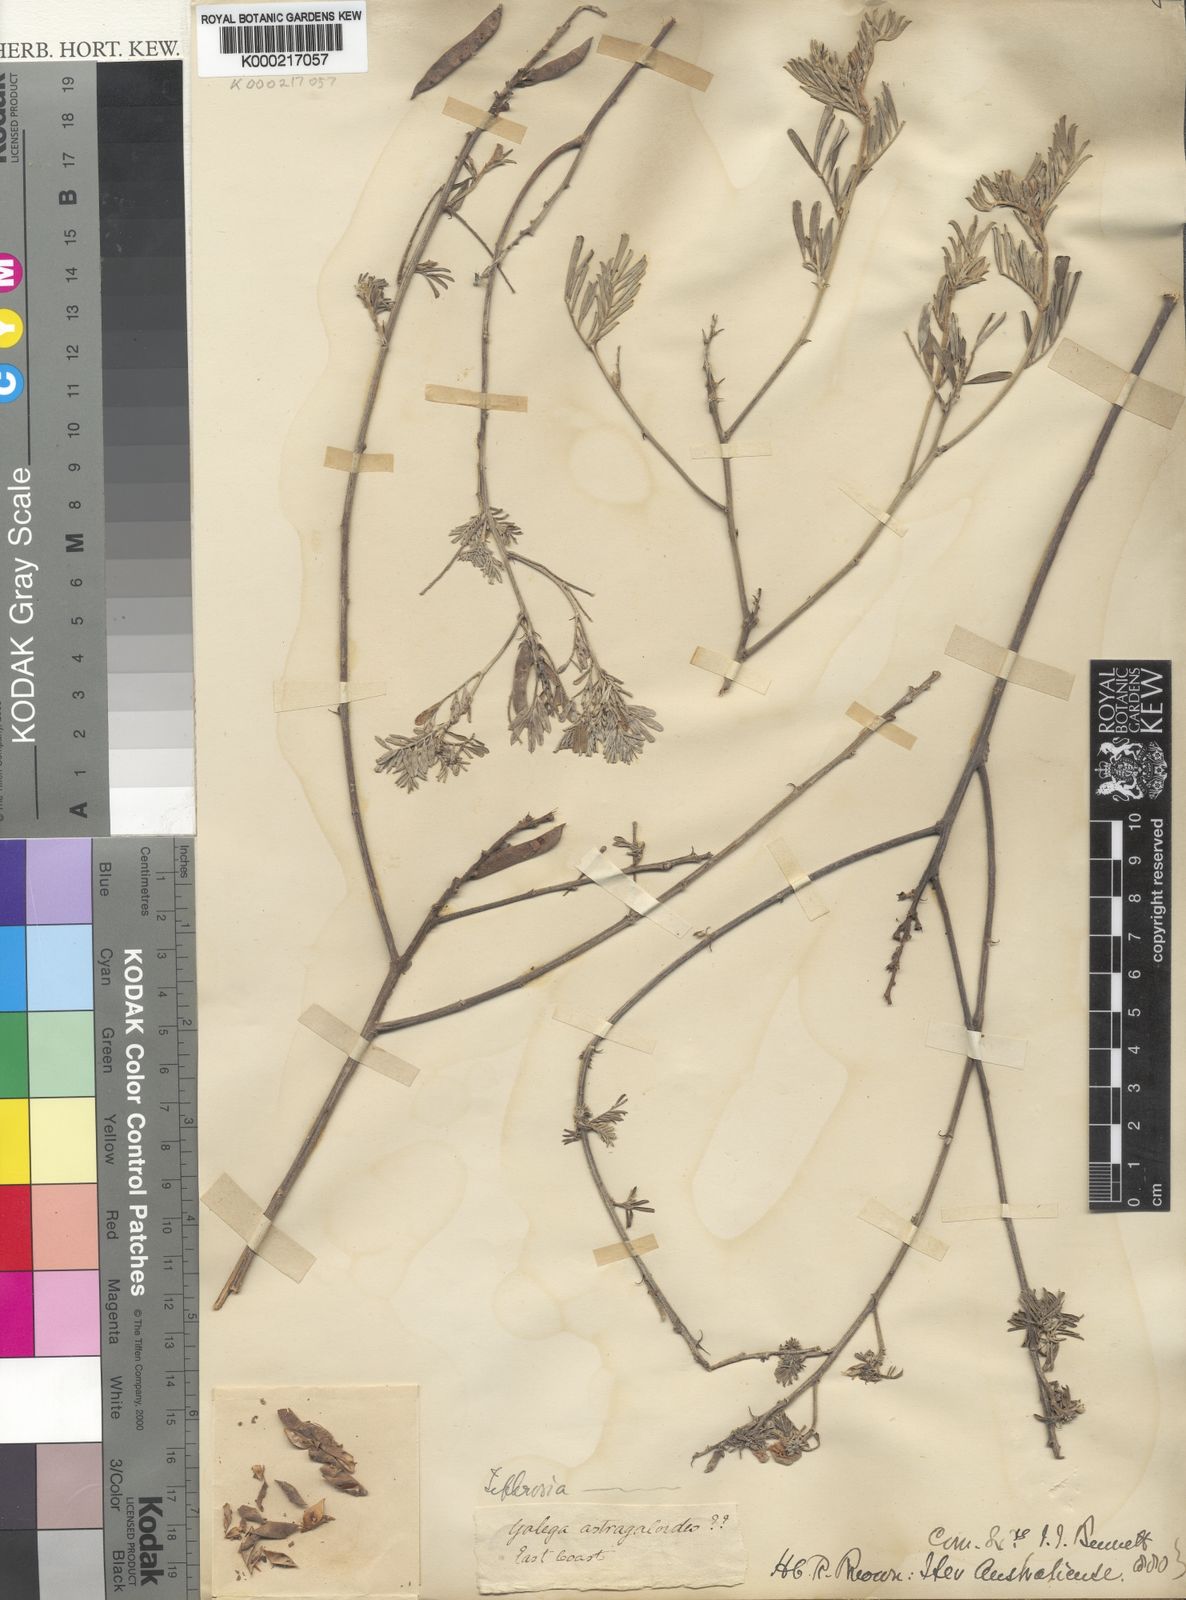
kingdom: Plantae
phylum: Tracheophyta
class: Magnoliopsida
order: Fabales
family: Fabaceae
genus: Tephrosia
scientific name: Tephrosia
